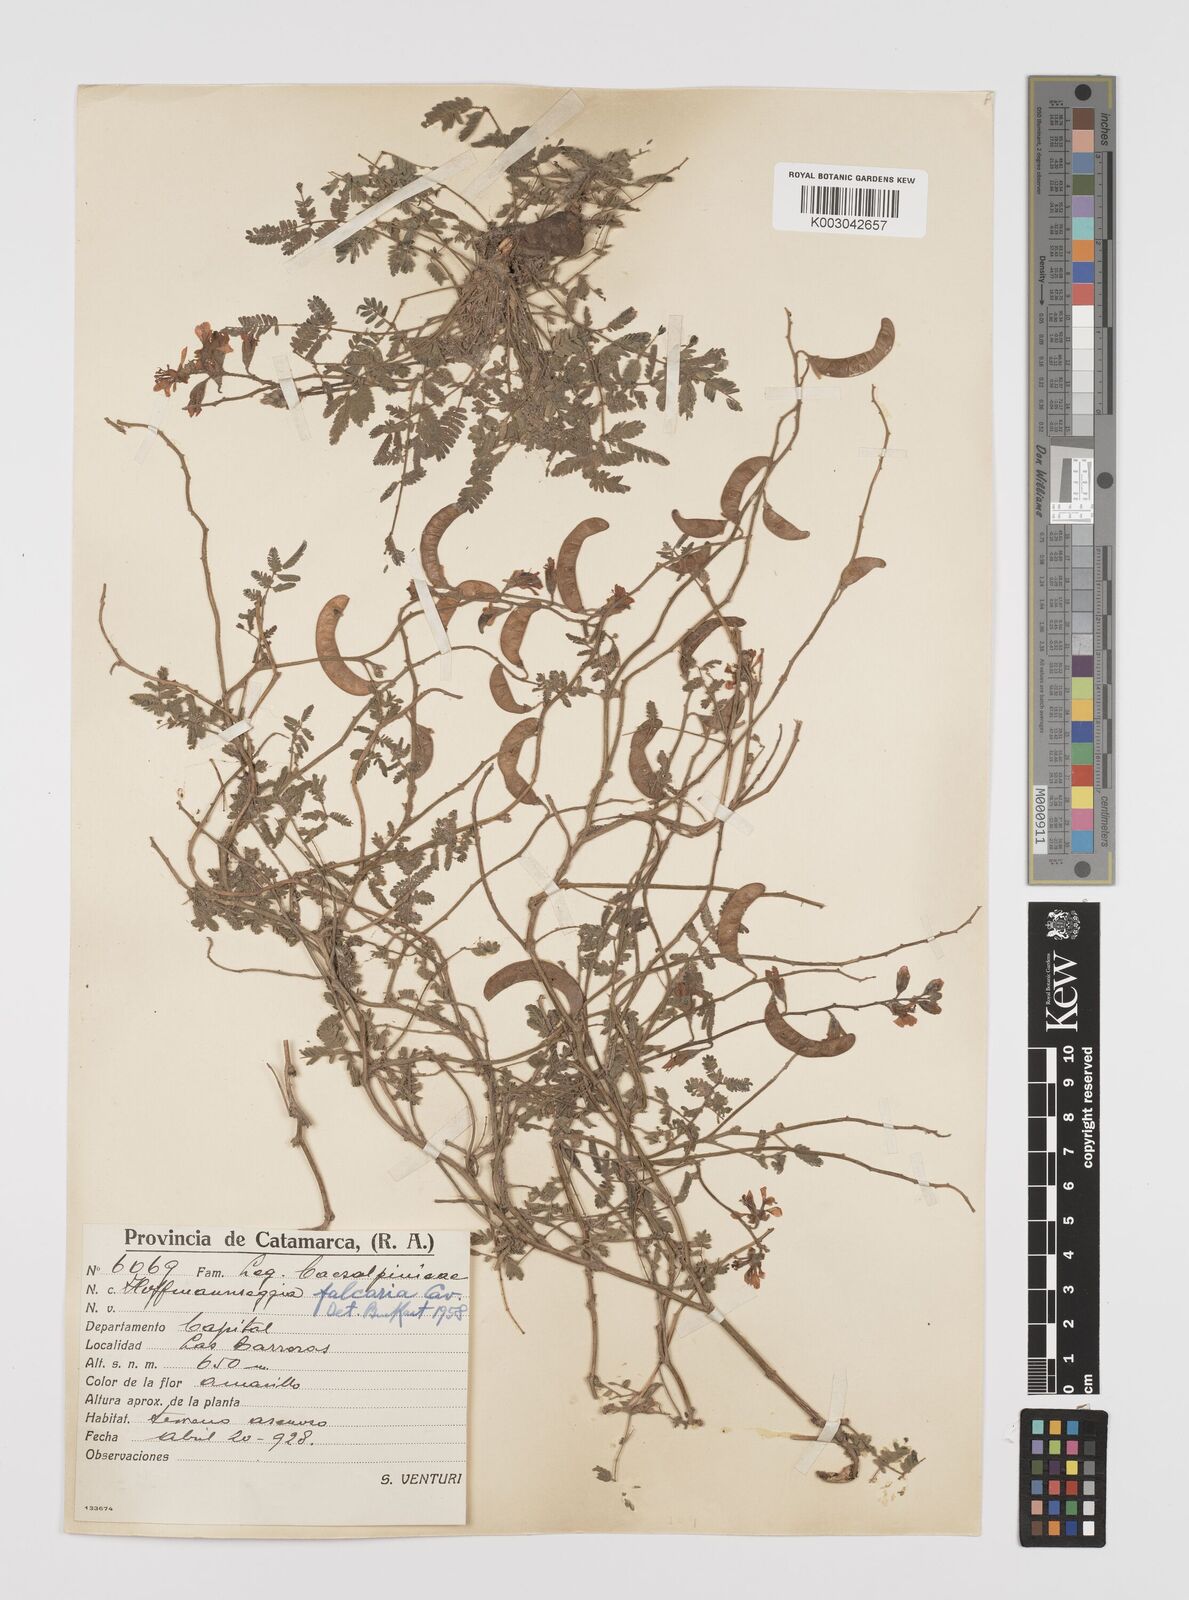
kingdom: Plantae
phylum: Tracheophyta
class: Magnoliopsida
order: Fabales
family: Fabaceae
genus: Hoffmannseggia
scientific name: Hoffmannseggia glauca
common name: Pignut
